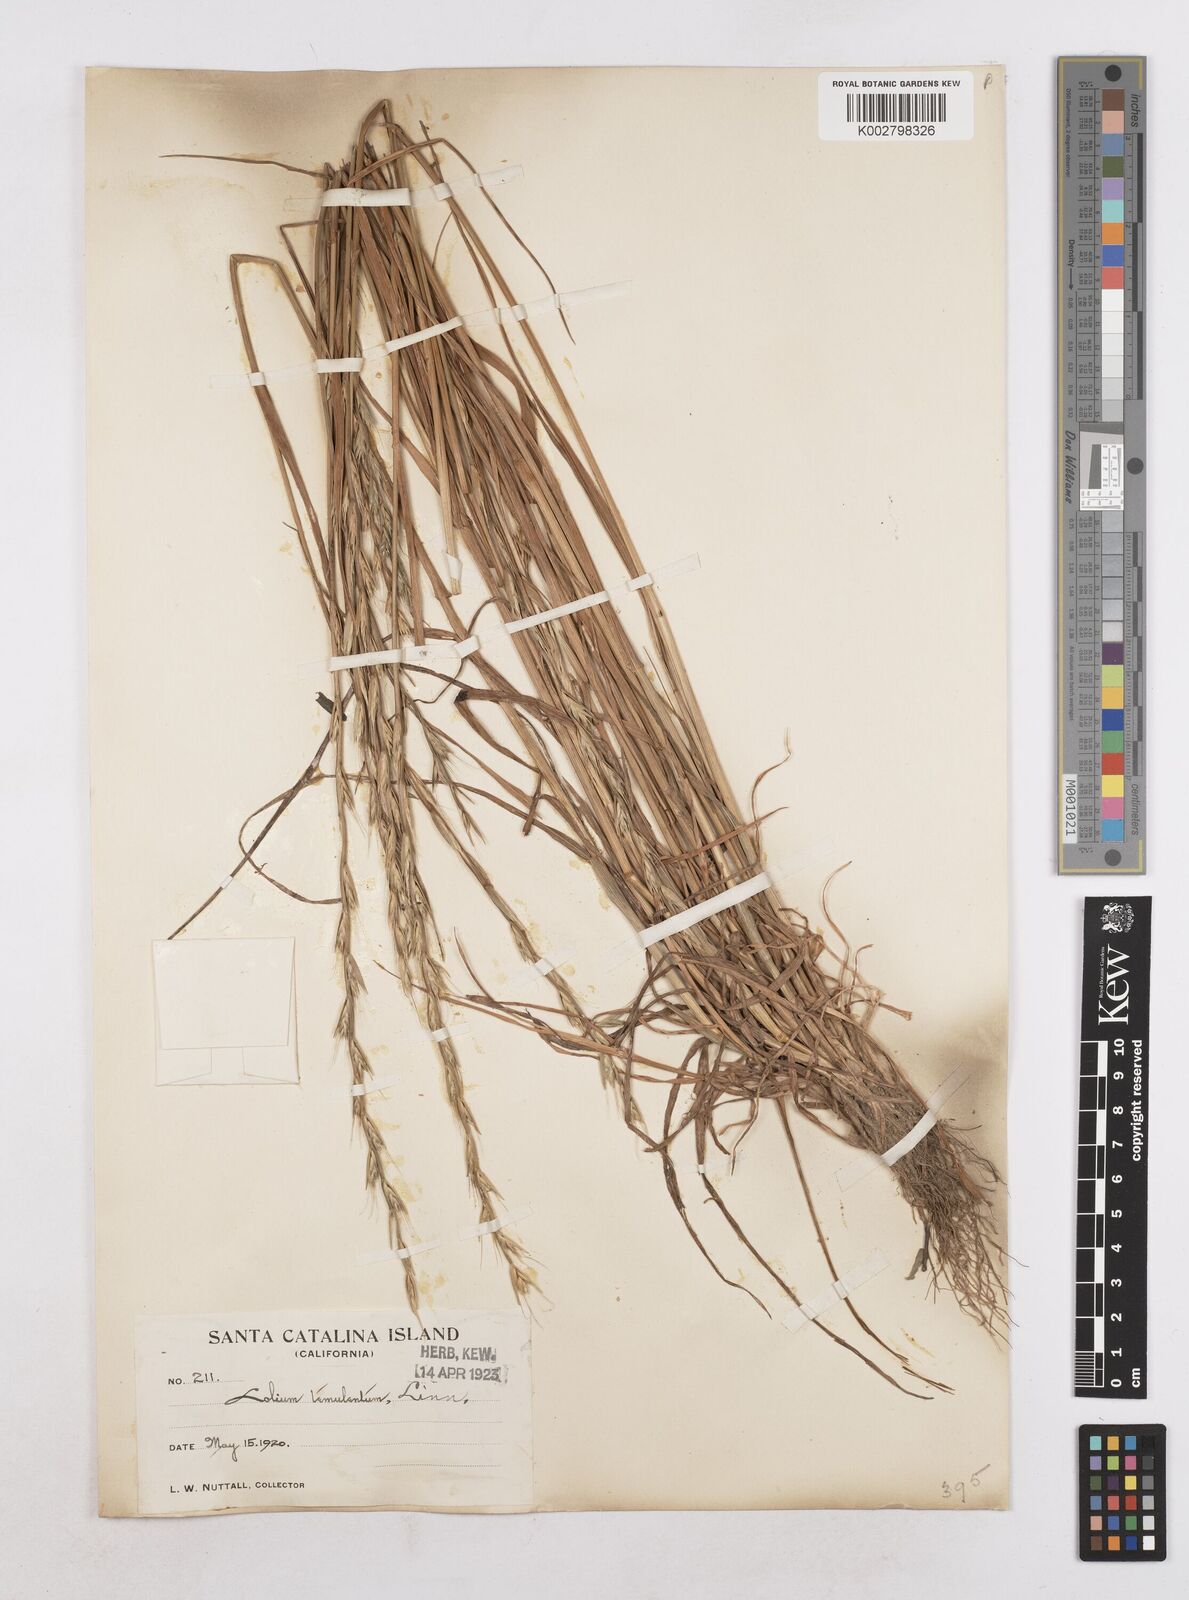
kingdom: Plantae
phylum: Tracheophyta
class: Liliopsida
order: Poales
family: Poaceae
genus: Lolium
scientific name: Lolium temulentum
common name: Darnel
